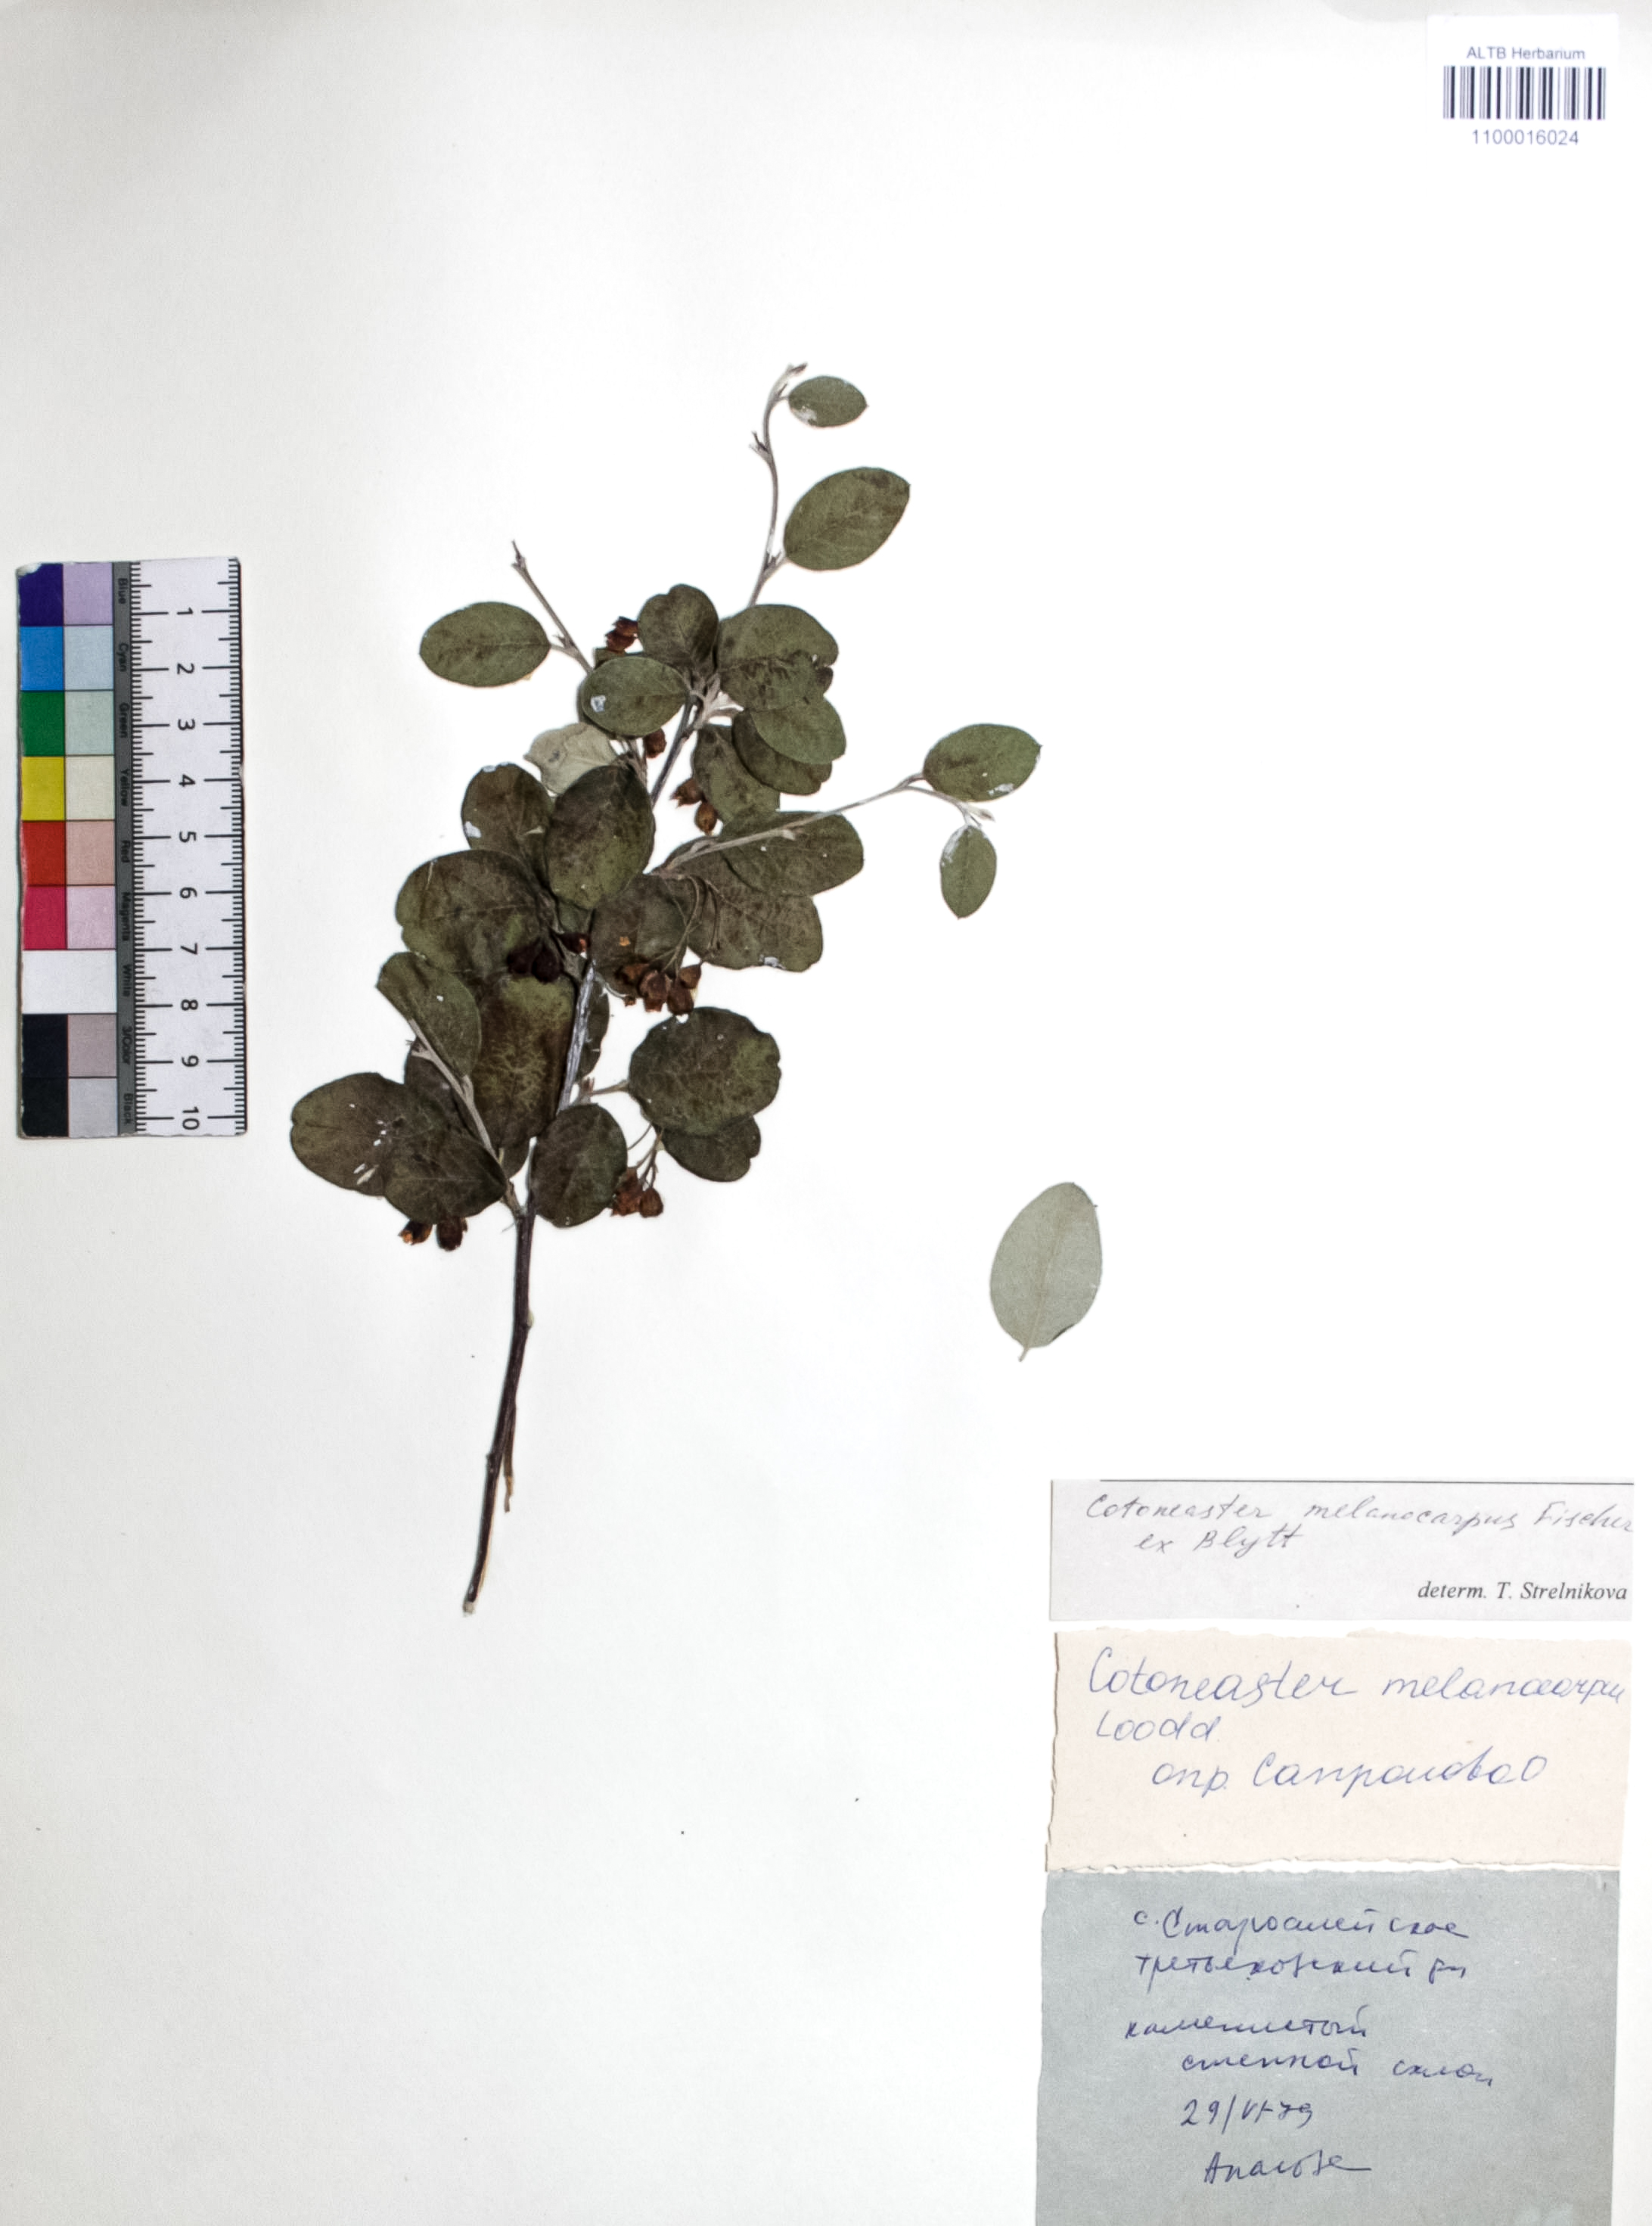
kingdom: Plantae
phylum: Tracheophyta
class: Magnoliopsida
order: Rosales
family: Rosaceae
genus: Cotoneaster
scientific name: Cotoneaster niger
